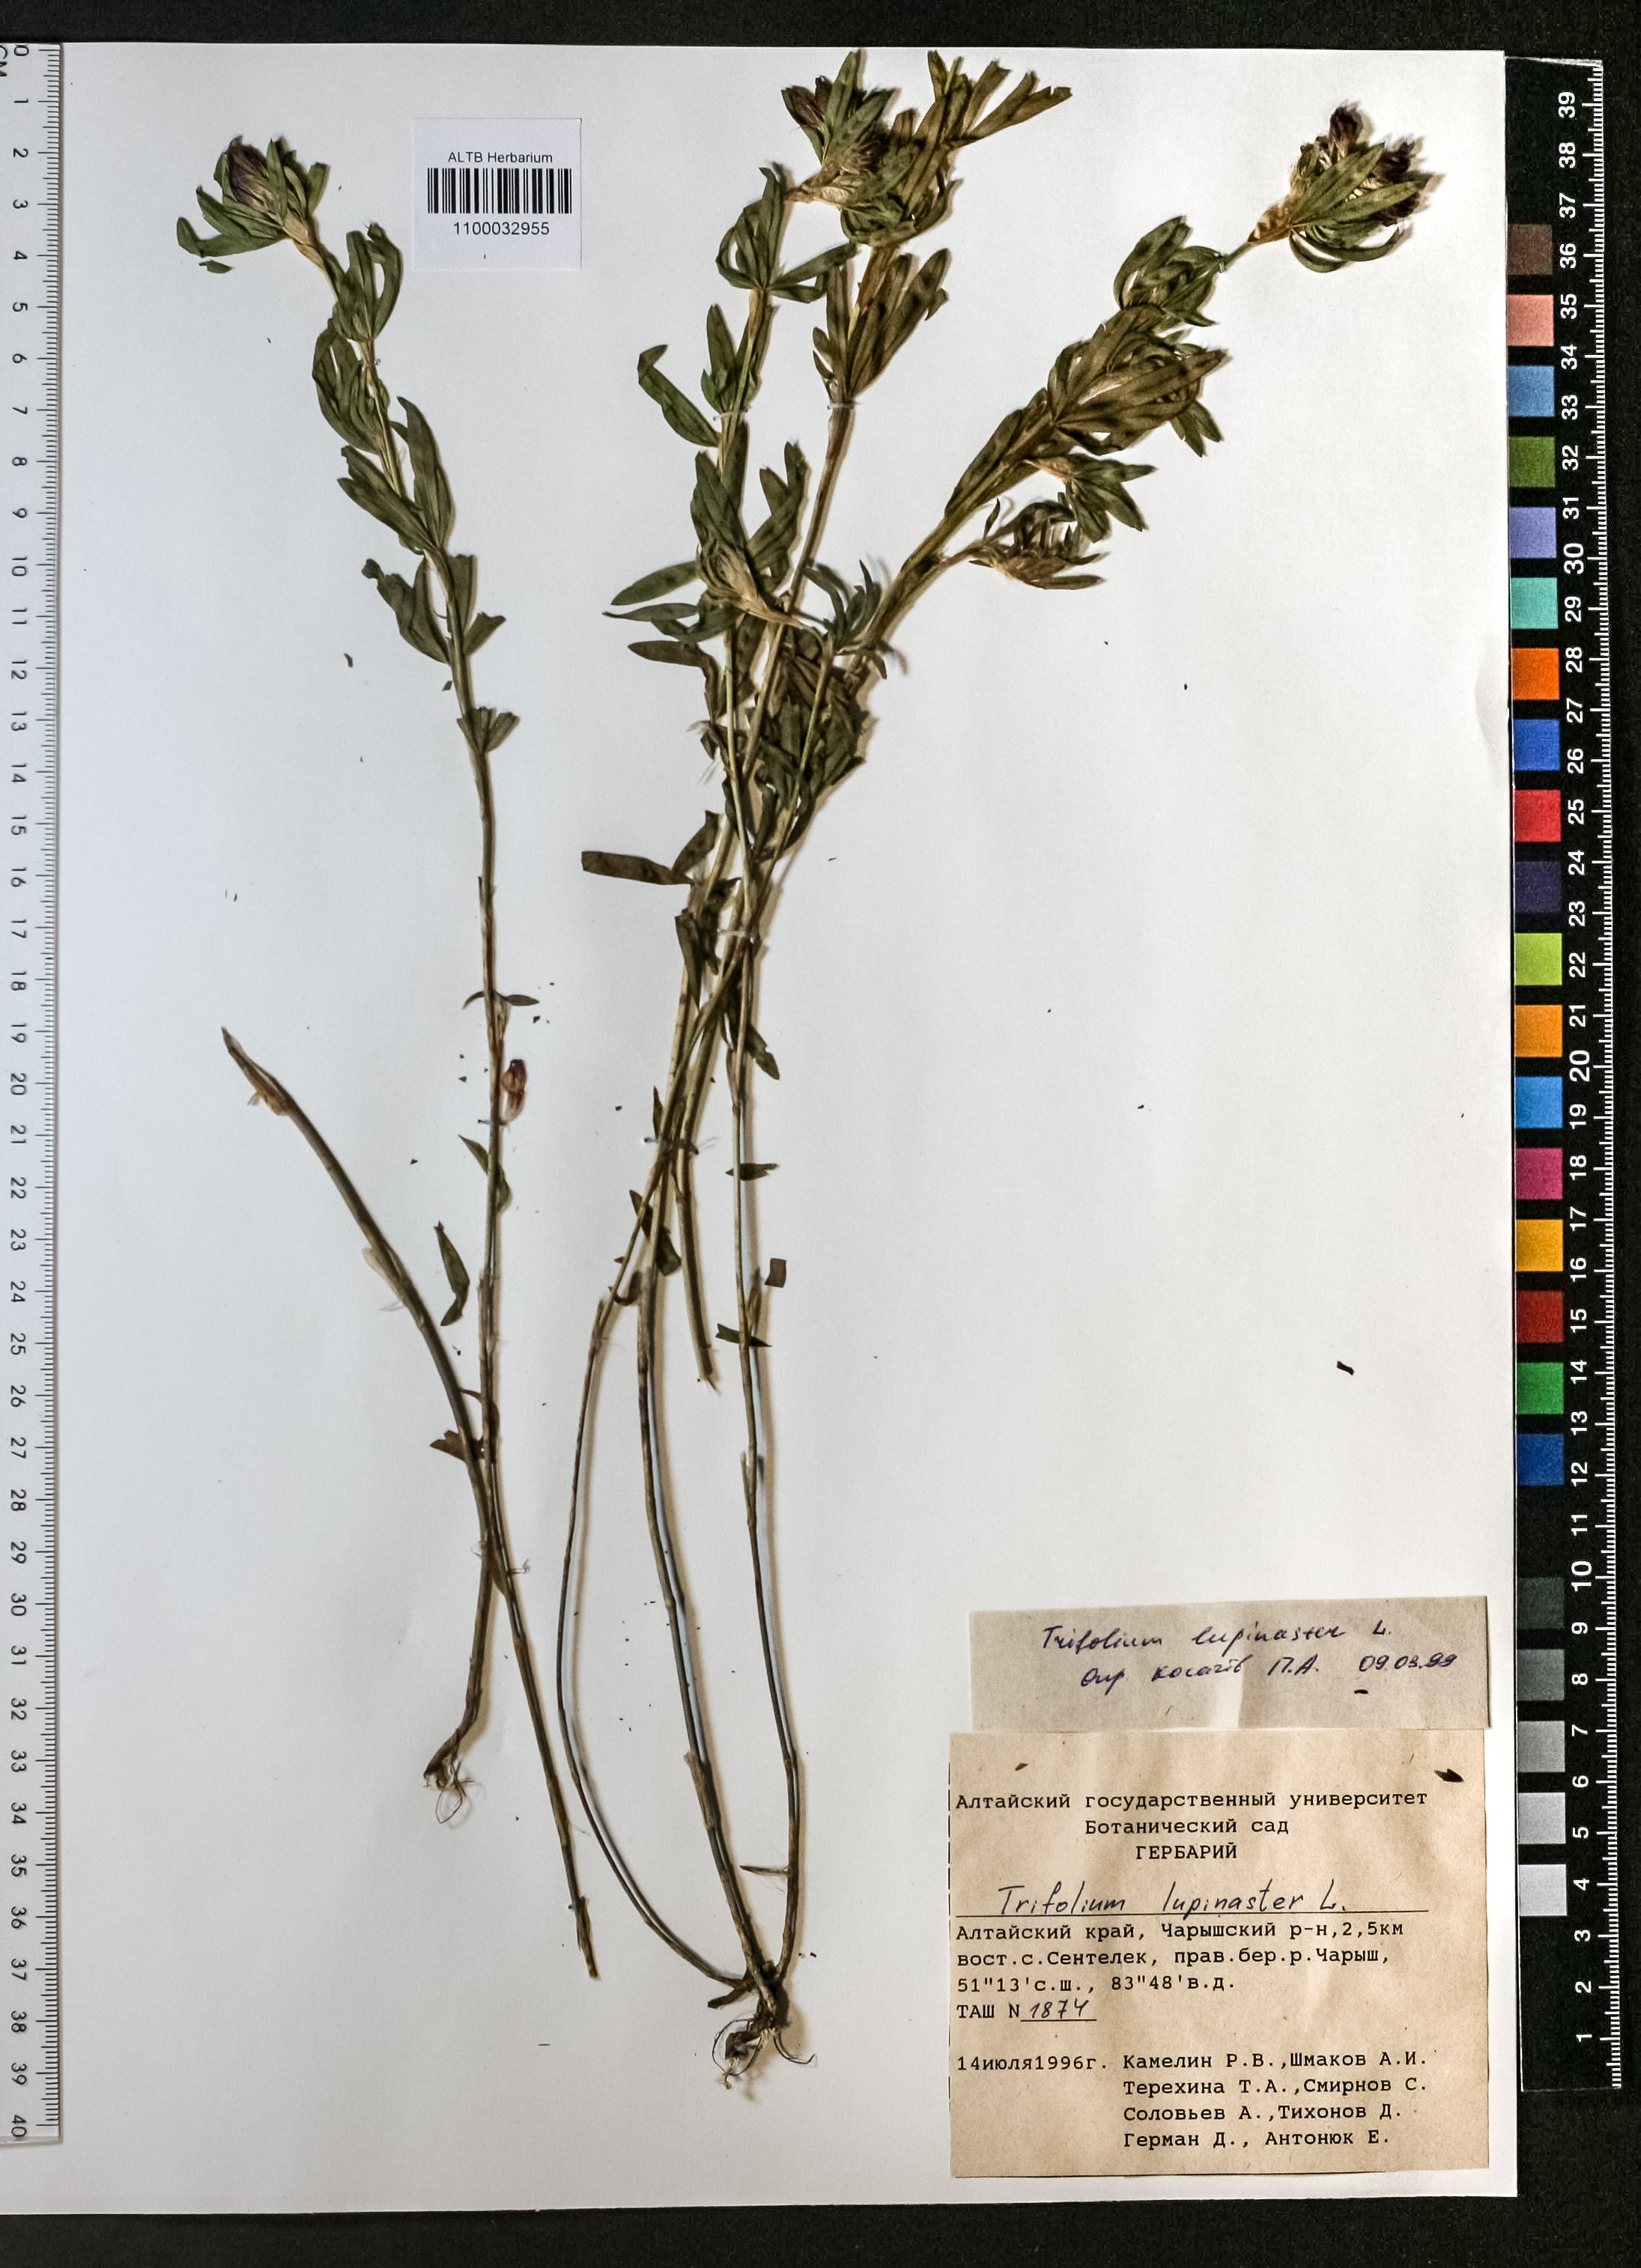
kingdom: Plantae
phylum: Tracheophyta
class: Magnoliopsida
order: Fabales
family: Fabaceae
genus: Trifolium
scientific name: Trifolium lupinaster
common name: Lupine clover
